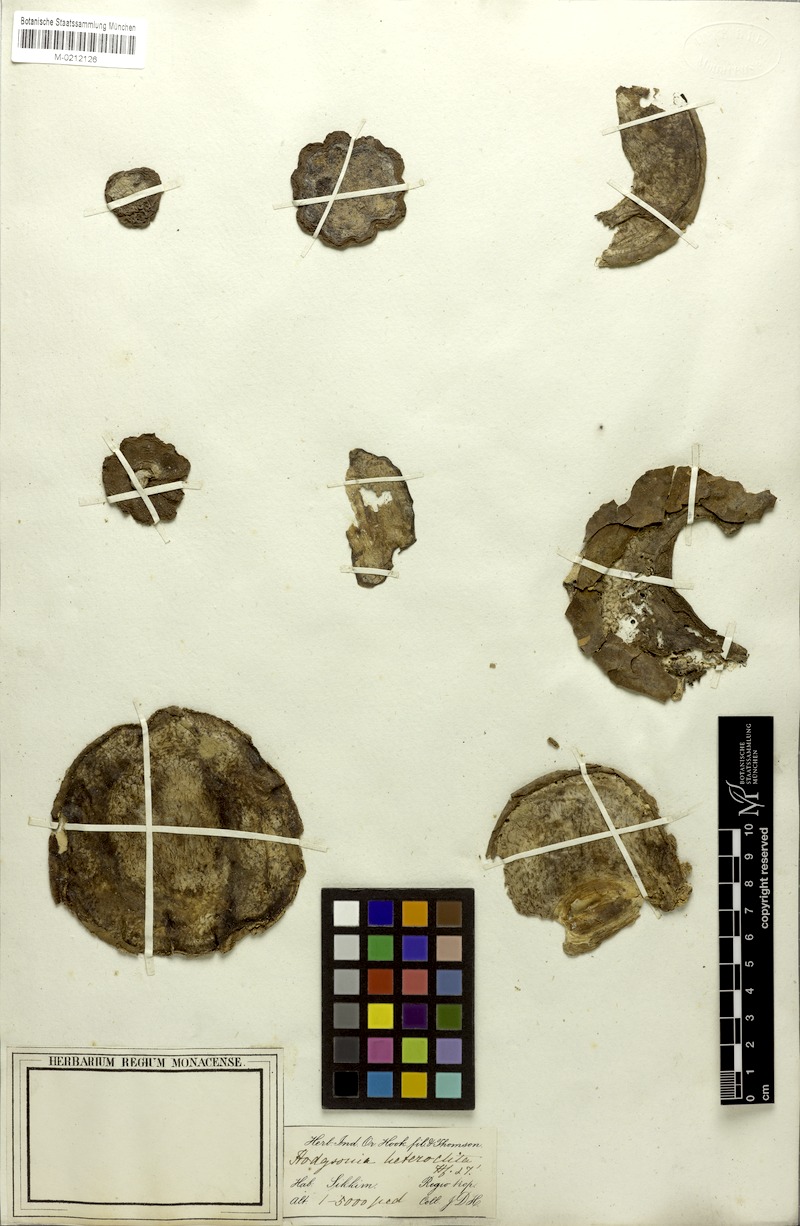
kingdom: Plantae
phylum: Tracheophyta
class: Magnoliopsida
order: Icacinales
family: Icacinaceae
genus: Natsiatum
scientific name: Natsiatum herpeticum
